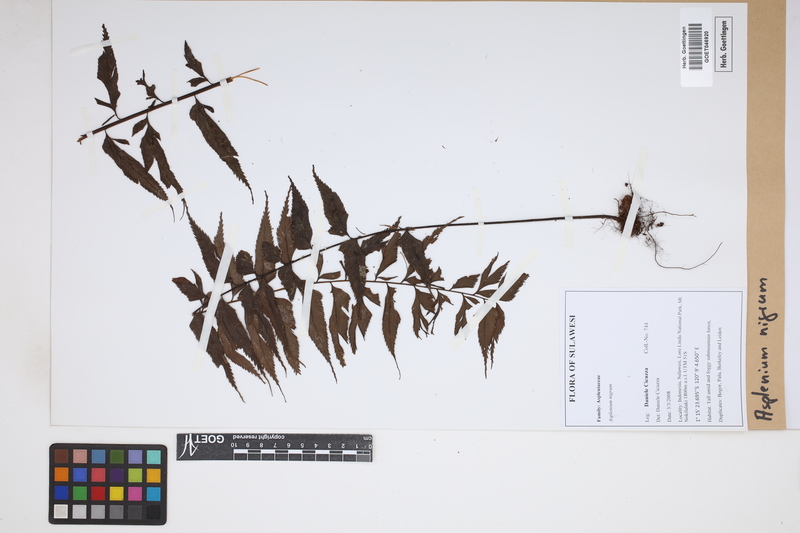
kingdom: Plantae
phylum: Tracheophyta
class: Polypodiopsida
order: Polypodiales
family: Aspleniaceae
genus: Asplenium
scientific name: Asplenium adiantum-nigrum
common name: Black spleenwort
